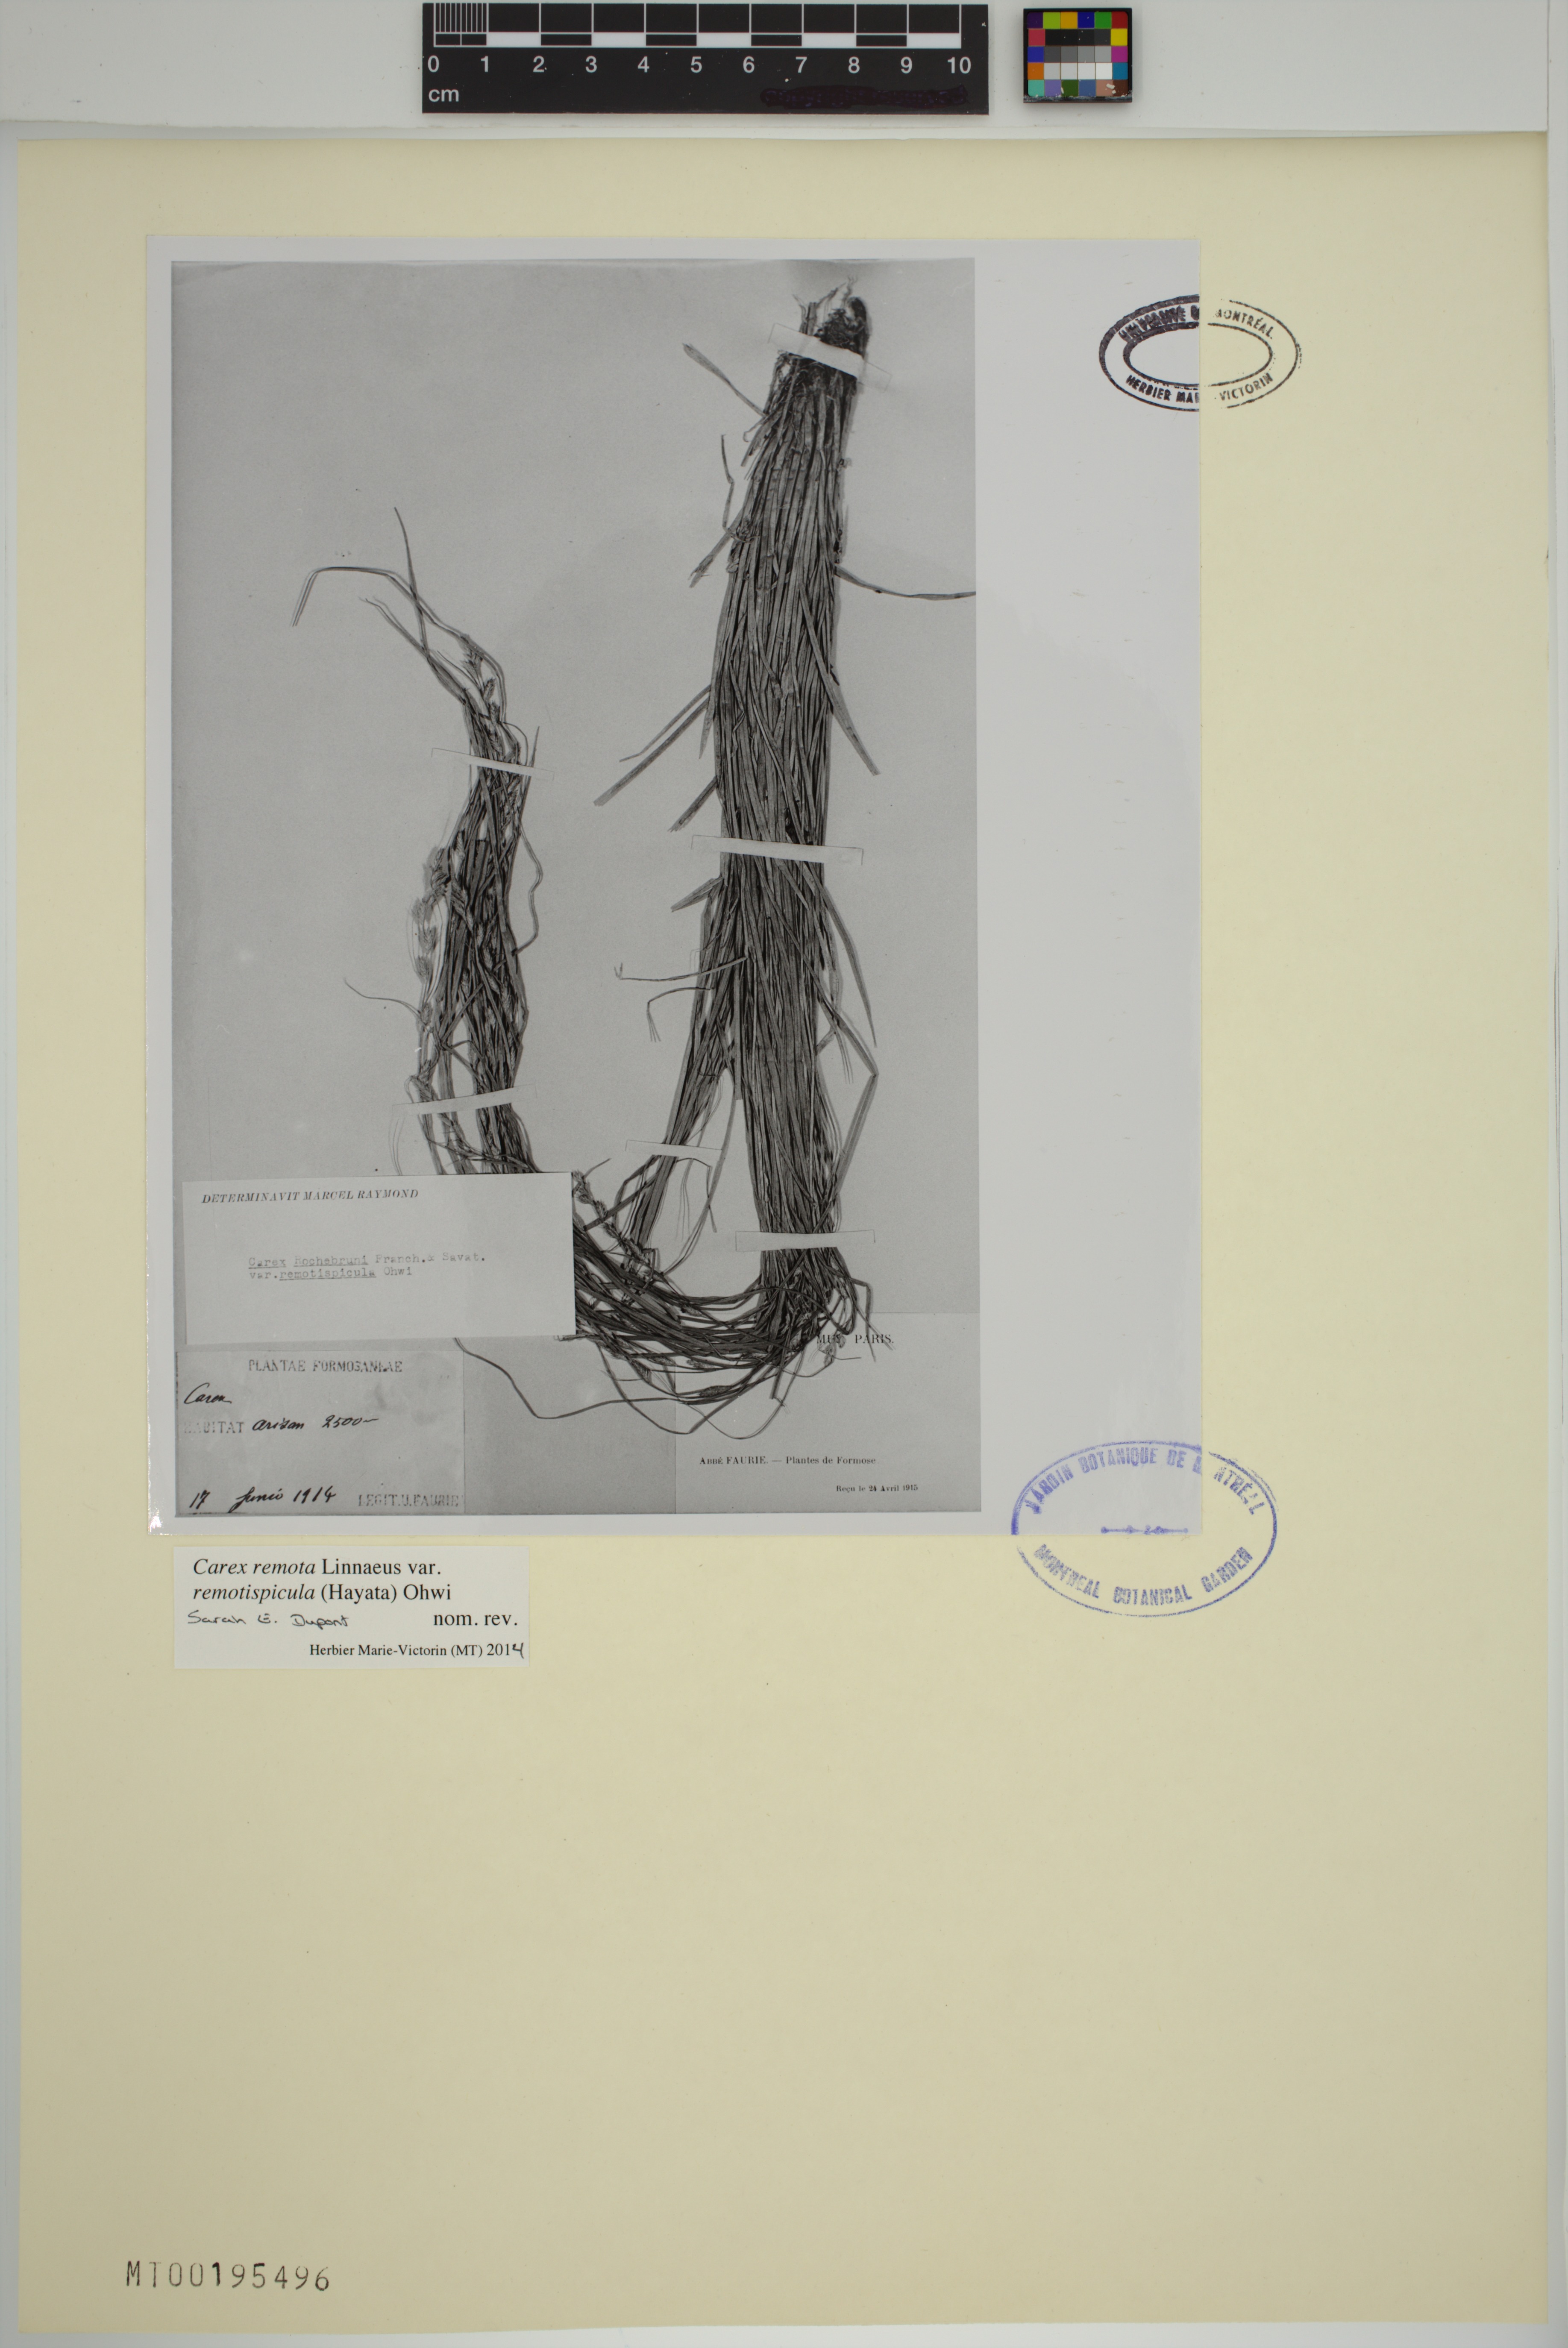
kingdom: Plantae
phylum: Tracheophyta
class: Liliopsida
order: Poales
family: Cyperaceae
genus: Carex
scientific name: Carex rochebrunei
